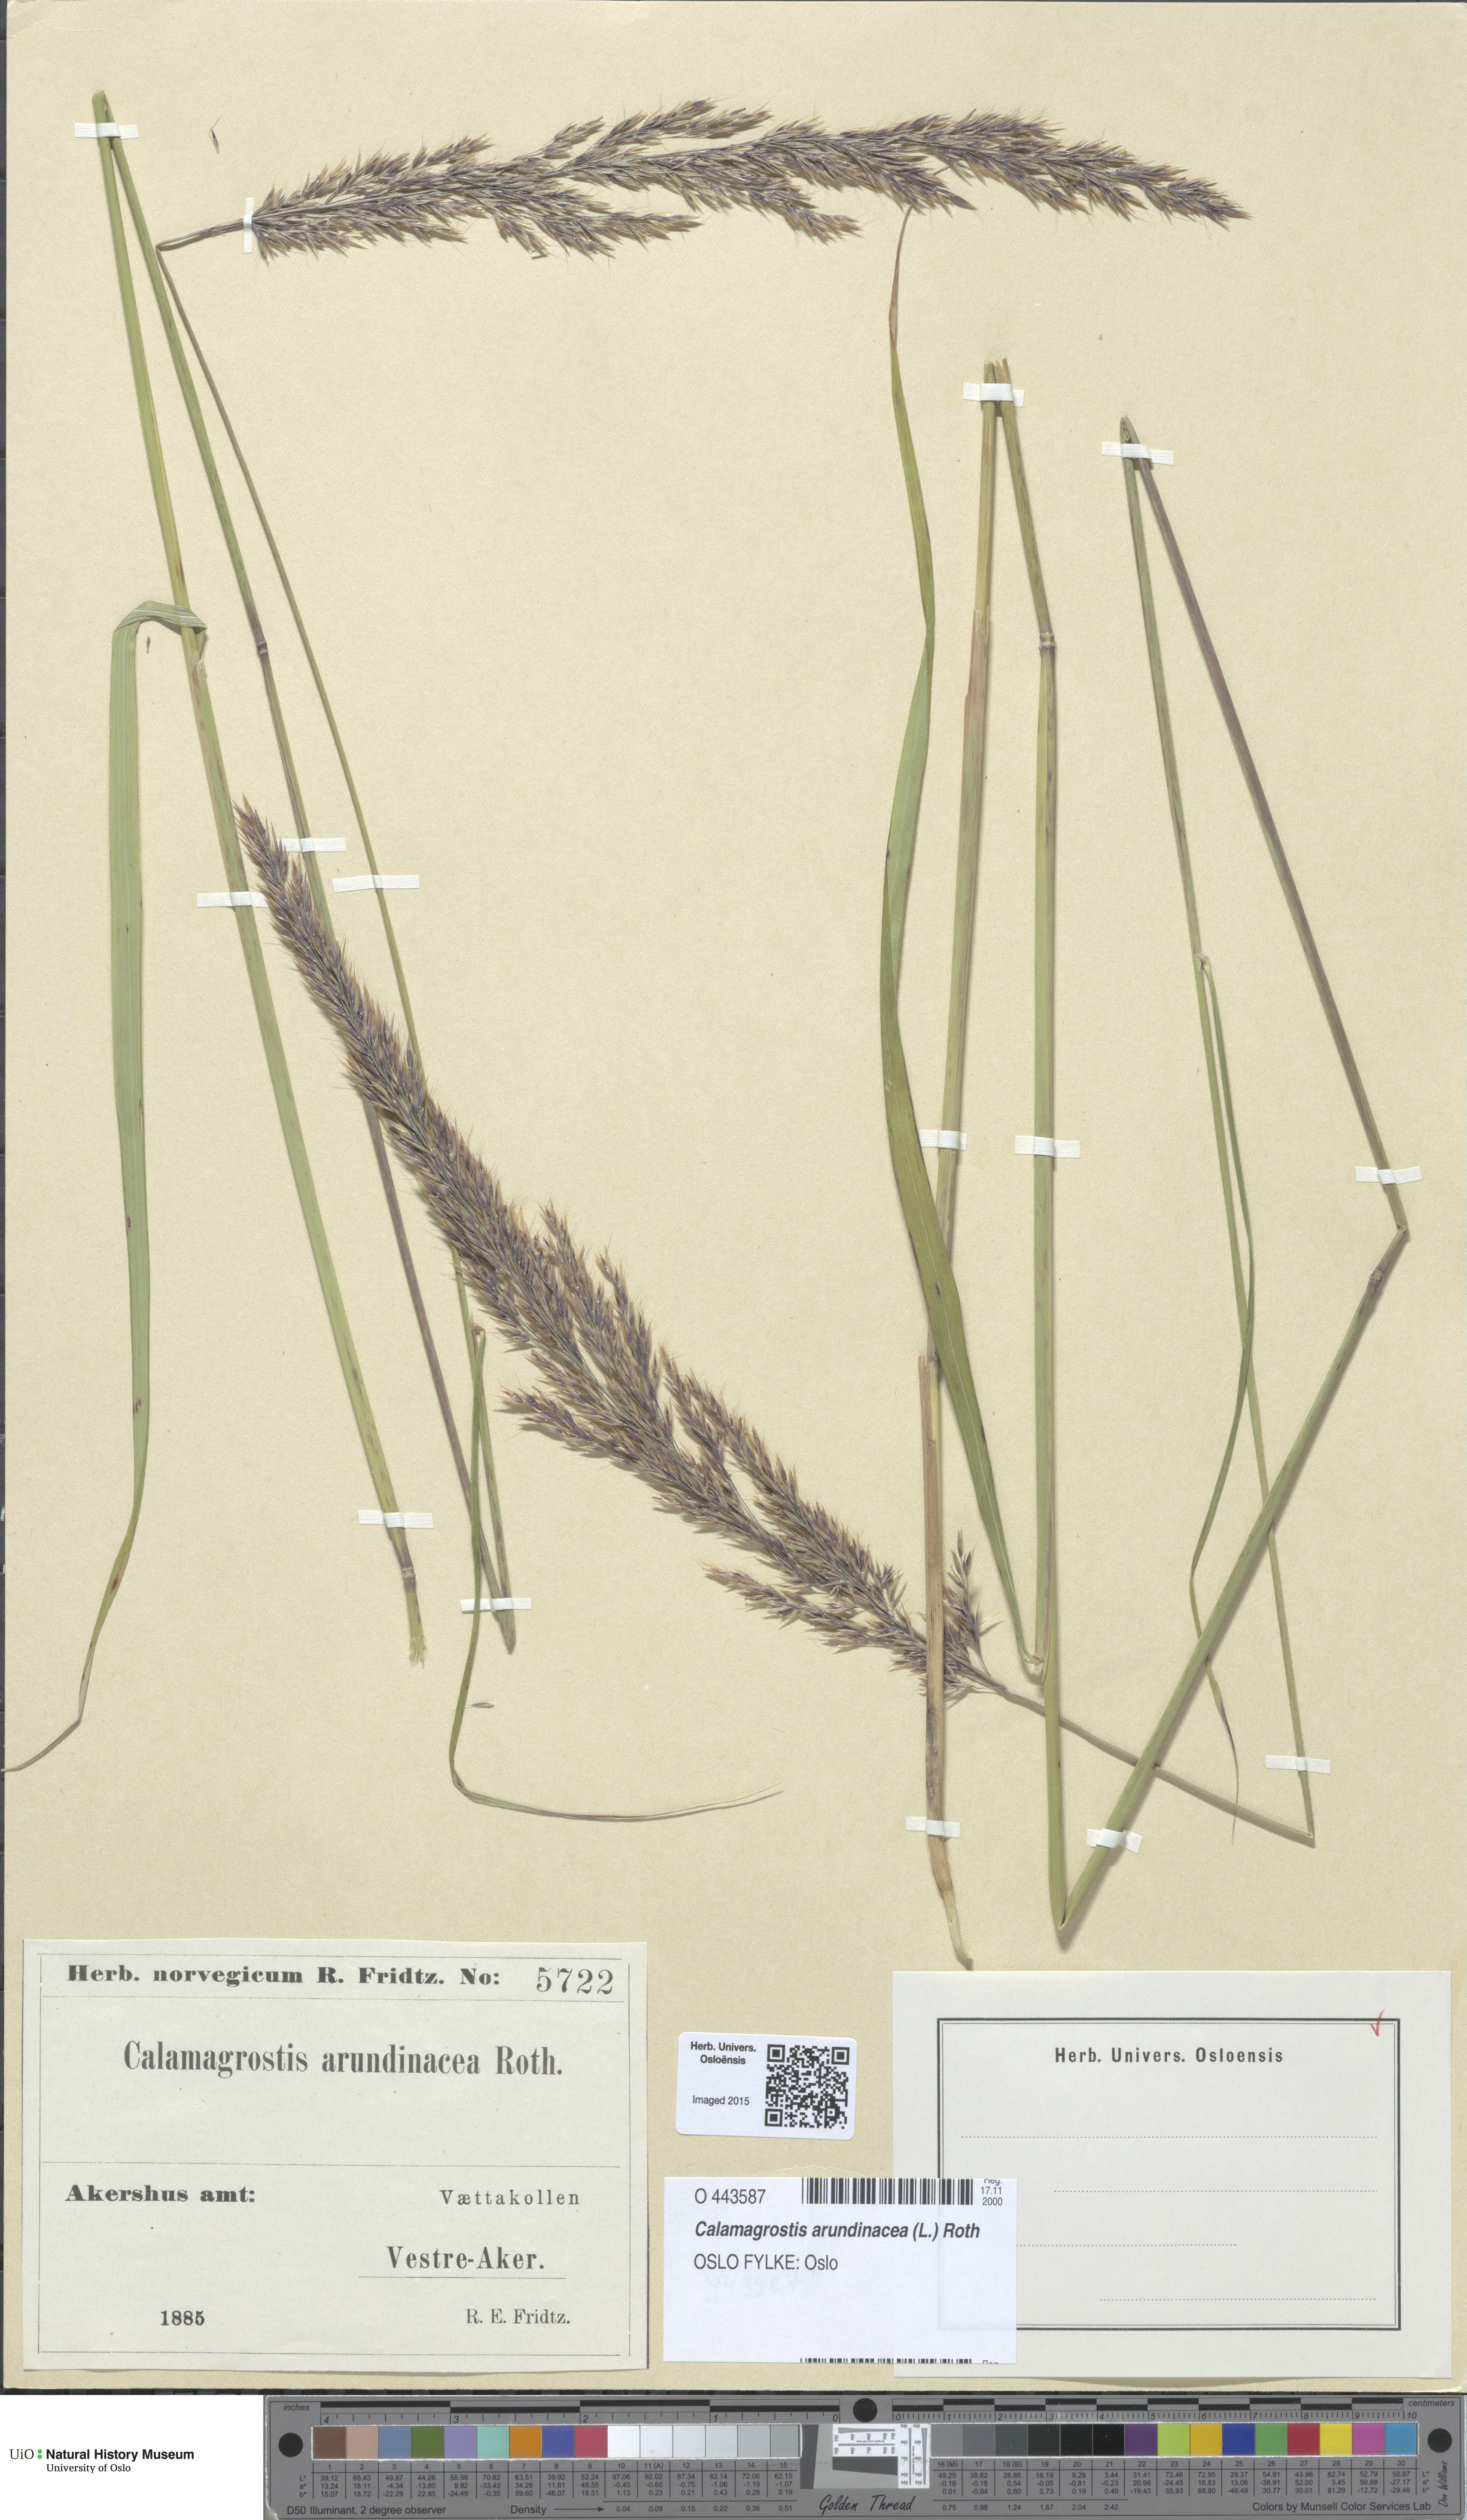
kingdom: Plantae
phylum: Tracheophyta
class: Liliopsida
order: Poales
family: Poaceae
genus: Calamagrostis
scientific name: Calamagrostis arundinacea
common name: Metskastik
